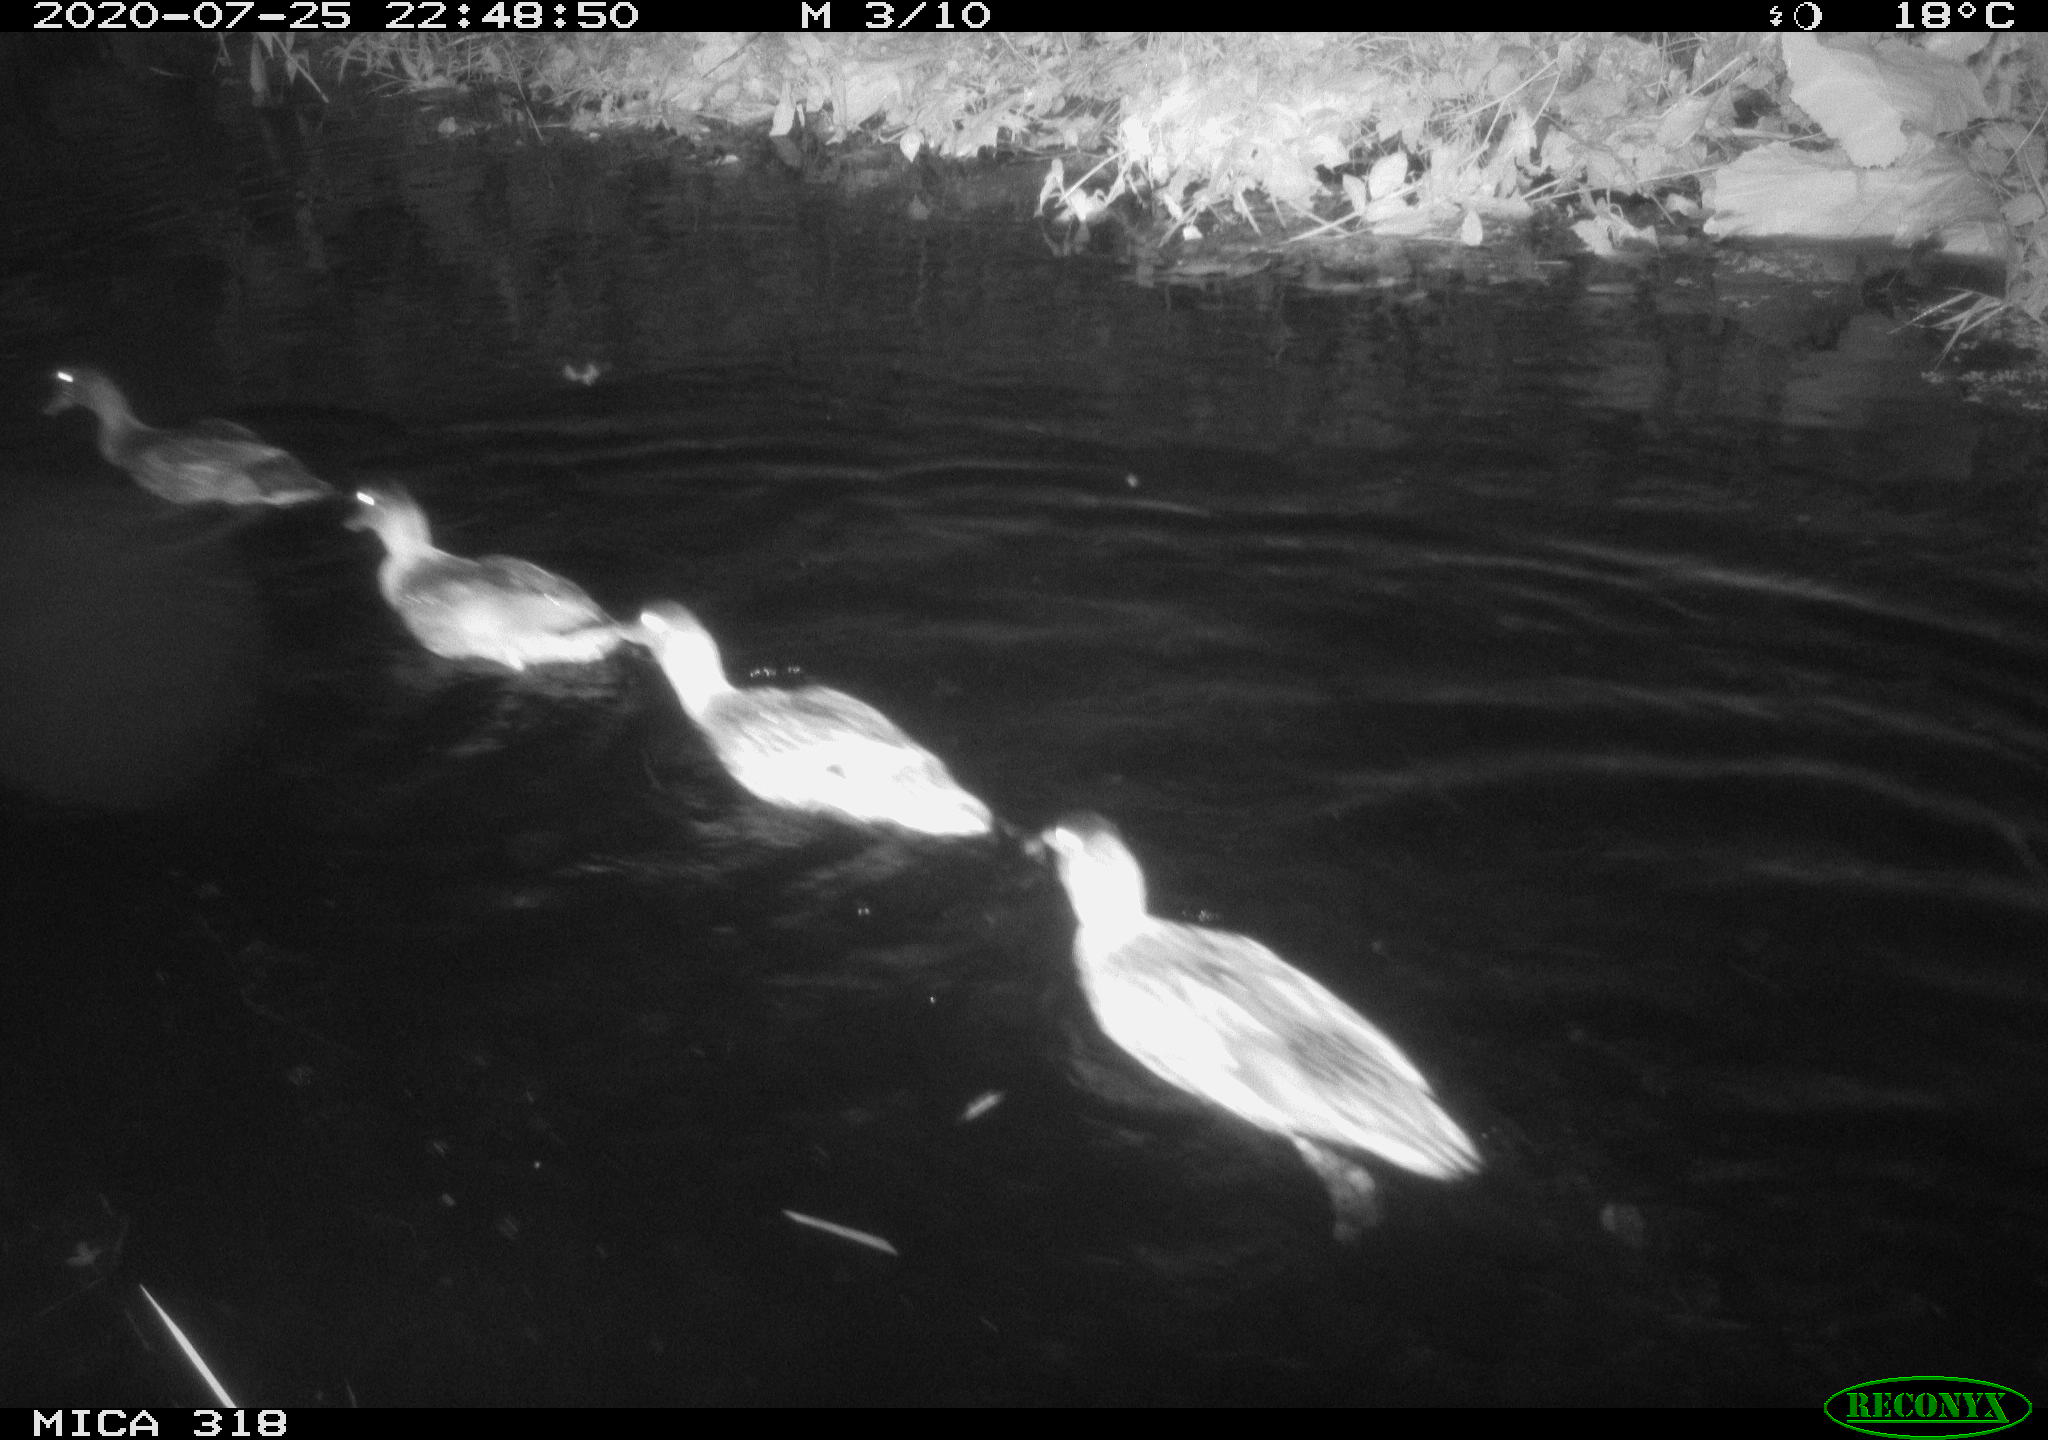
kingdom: Animalia
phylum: Chordata
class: Aves
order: Anseriformes
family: Anatidae
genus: Anas
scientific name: Anas platyrhynchos
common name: Mallard
